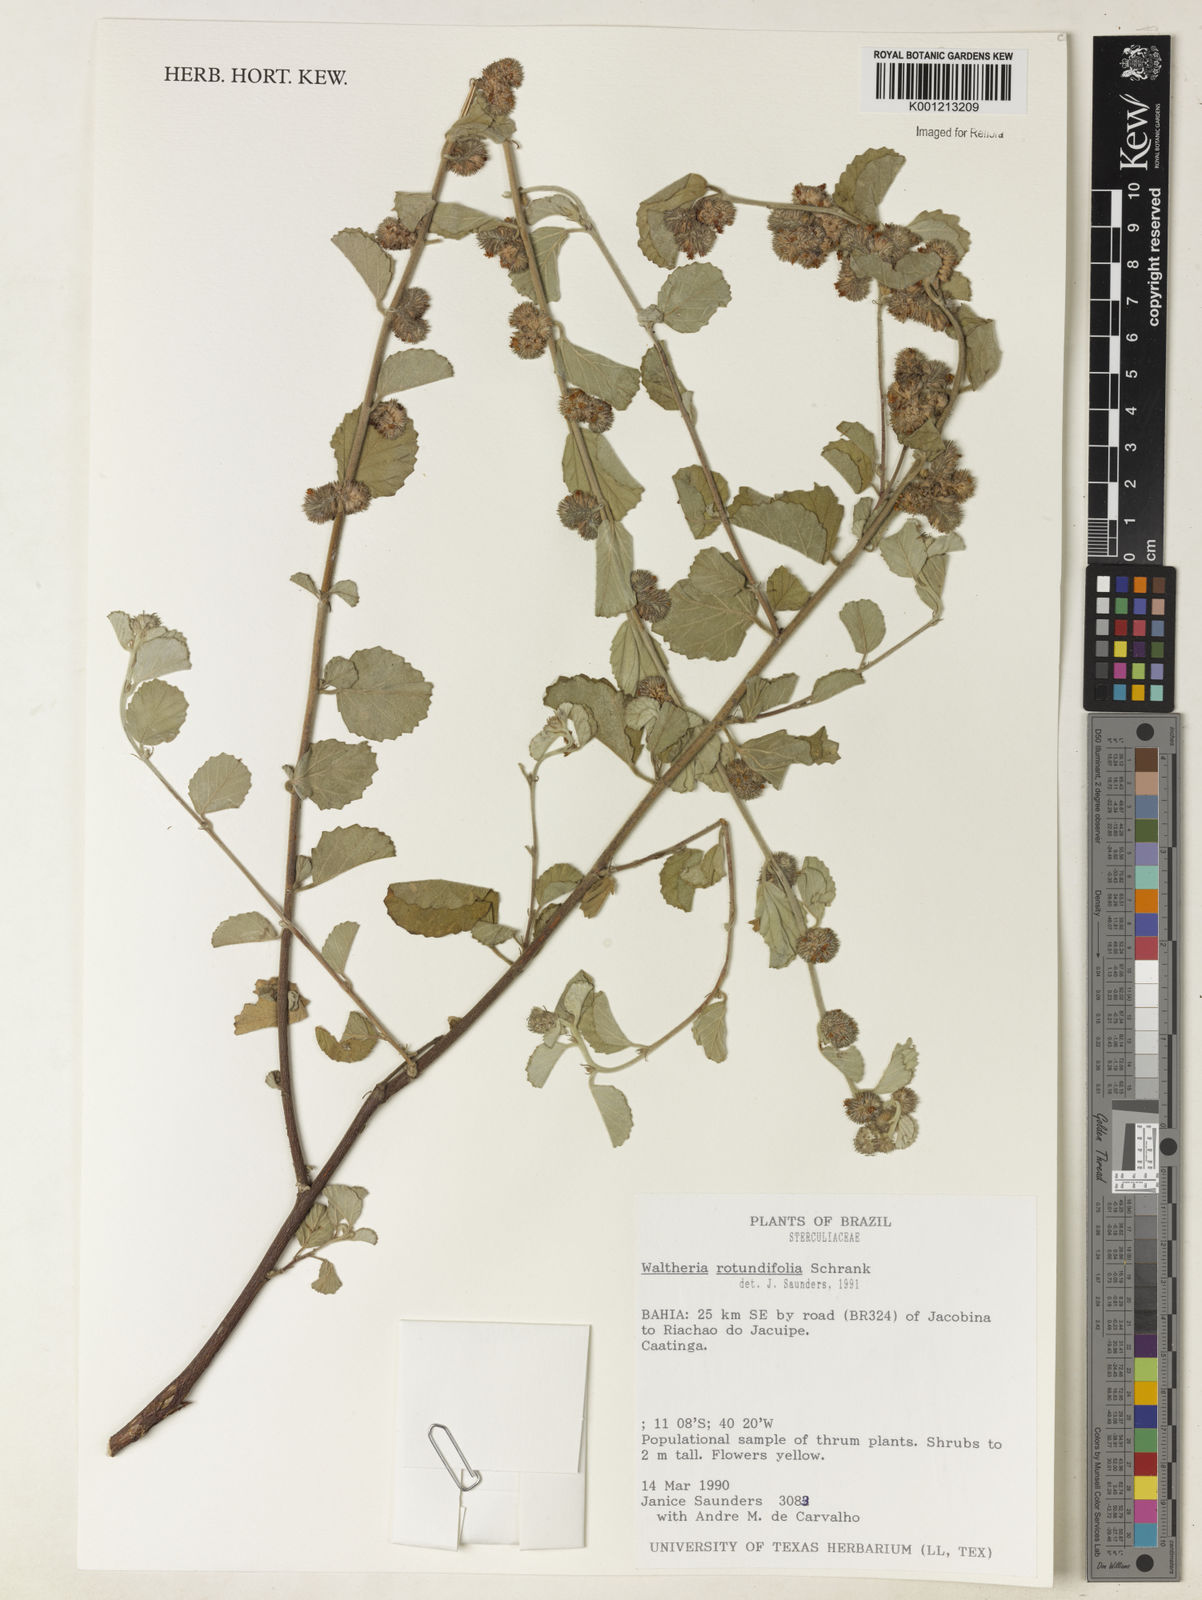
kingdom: Plantae
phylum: Tracheophyta
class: Magnoliopsida
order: Malvales
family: Malvaceae
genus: Waltheria
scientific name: Waltheria rotundifolia
